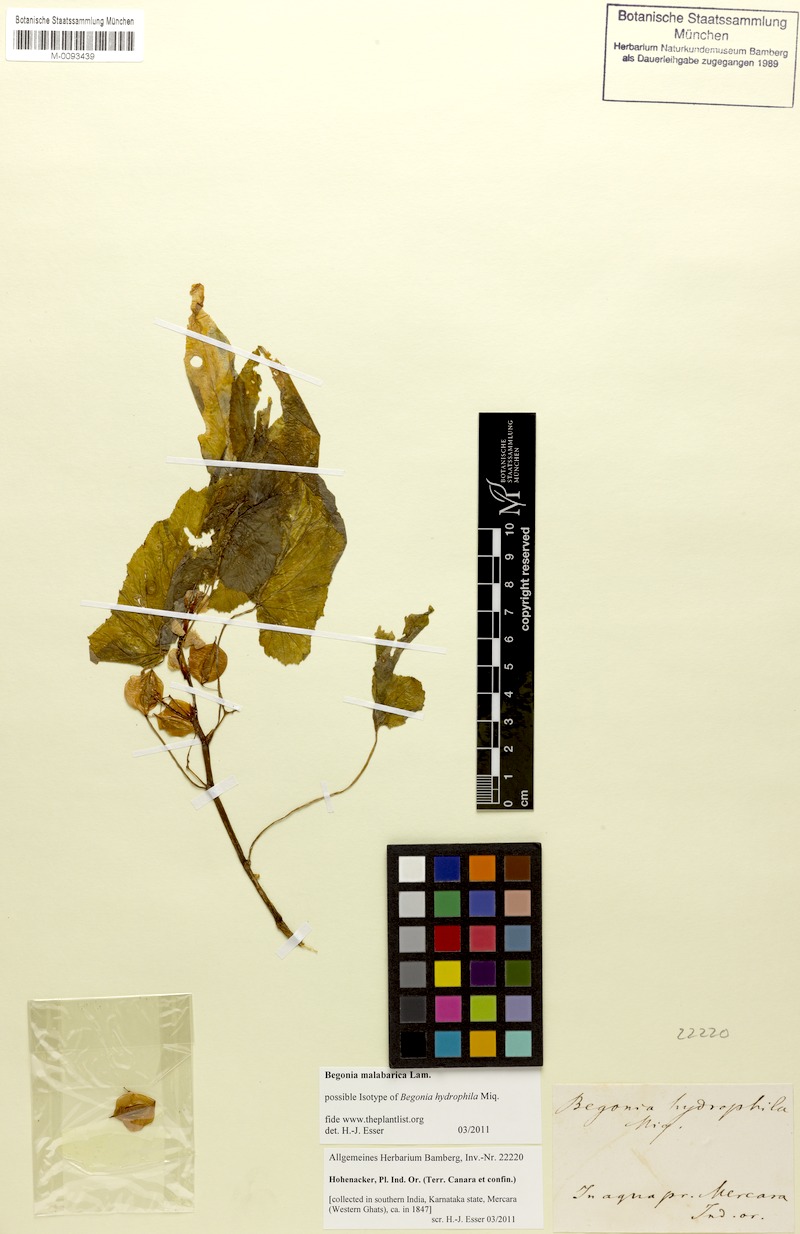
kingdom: Plantae
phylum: Tracheophyta
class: Magnoliopsida
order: Cucurbitales
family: Begoniaceae
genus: Begonia
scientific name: Begonia malabarica
